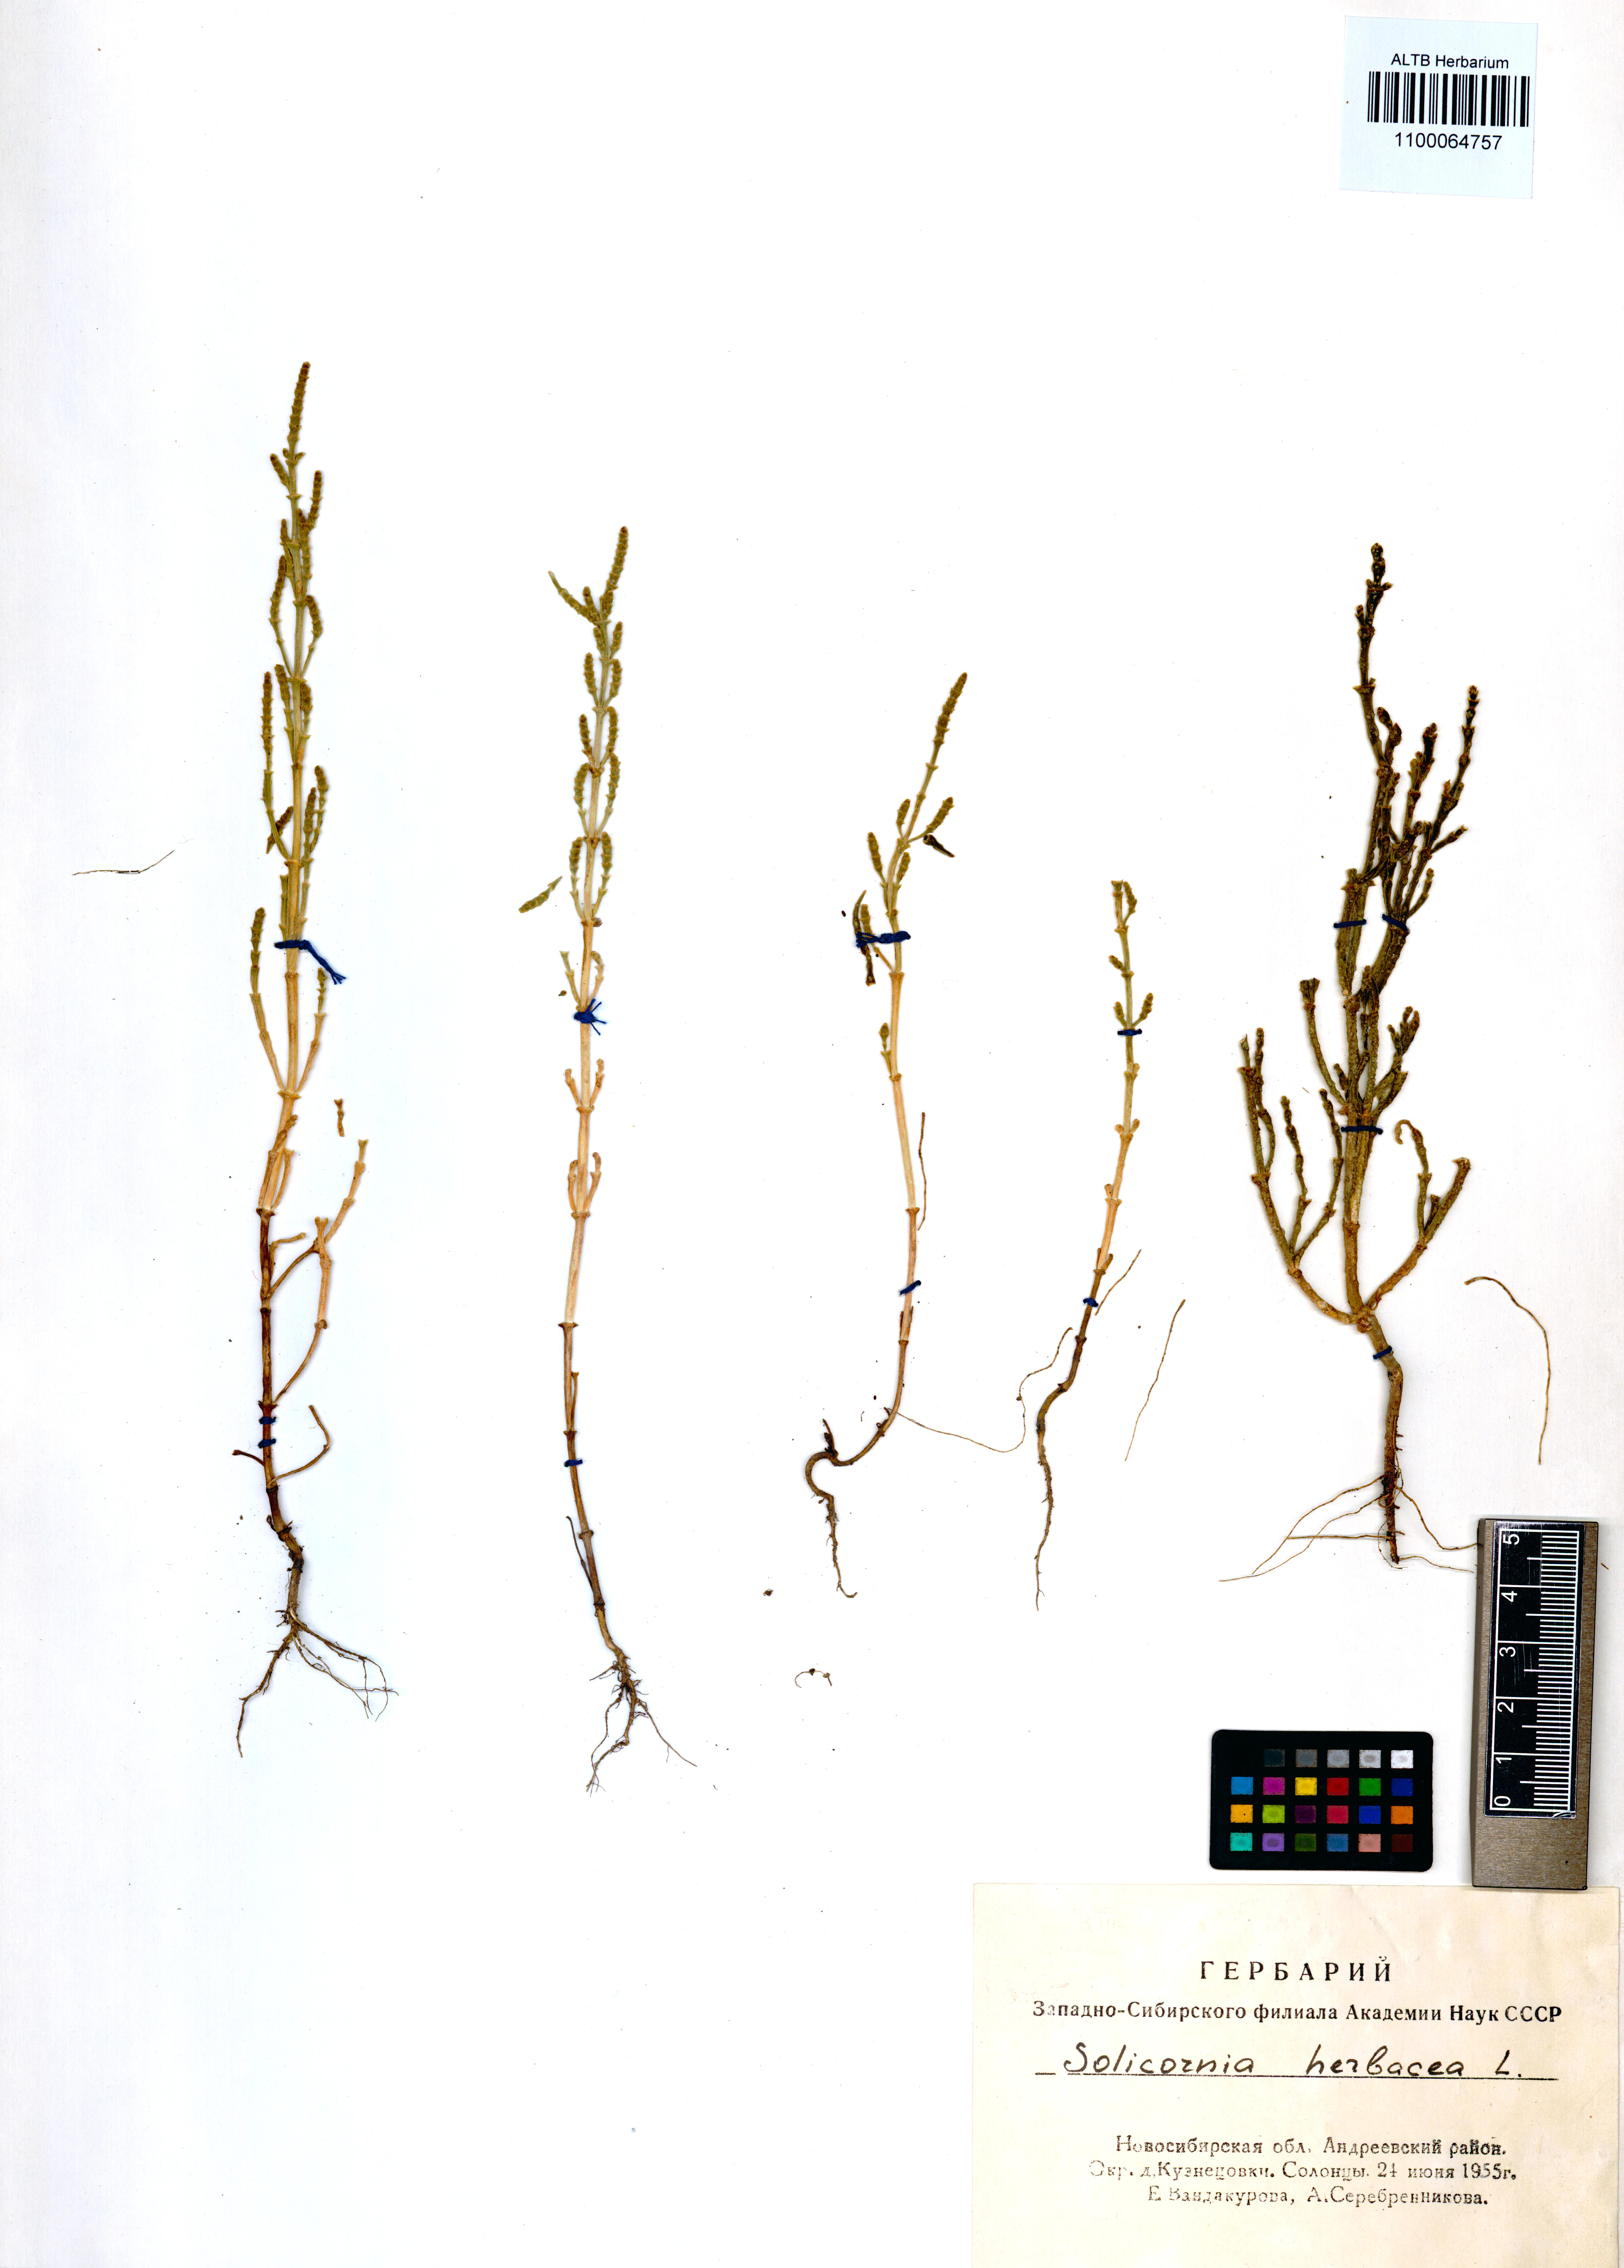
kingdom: Plantae
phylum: Tracheophyta
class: Magnoliopsida
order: Caryophyllales
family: Amaranthaceae
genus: Salicornia
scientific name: Salicornia europaea
